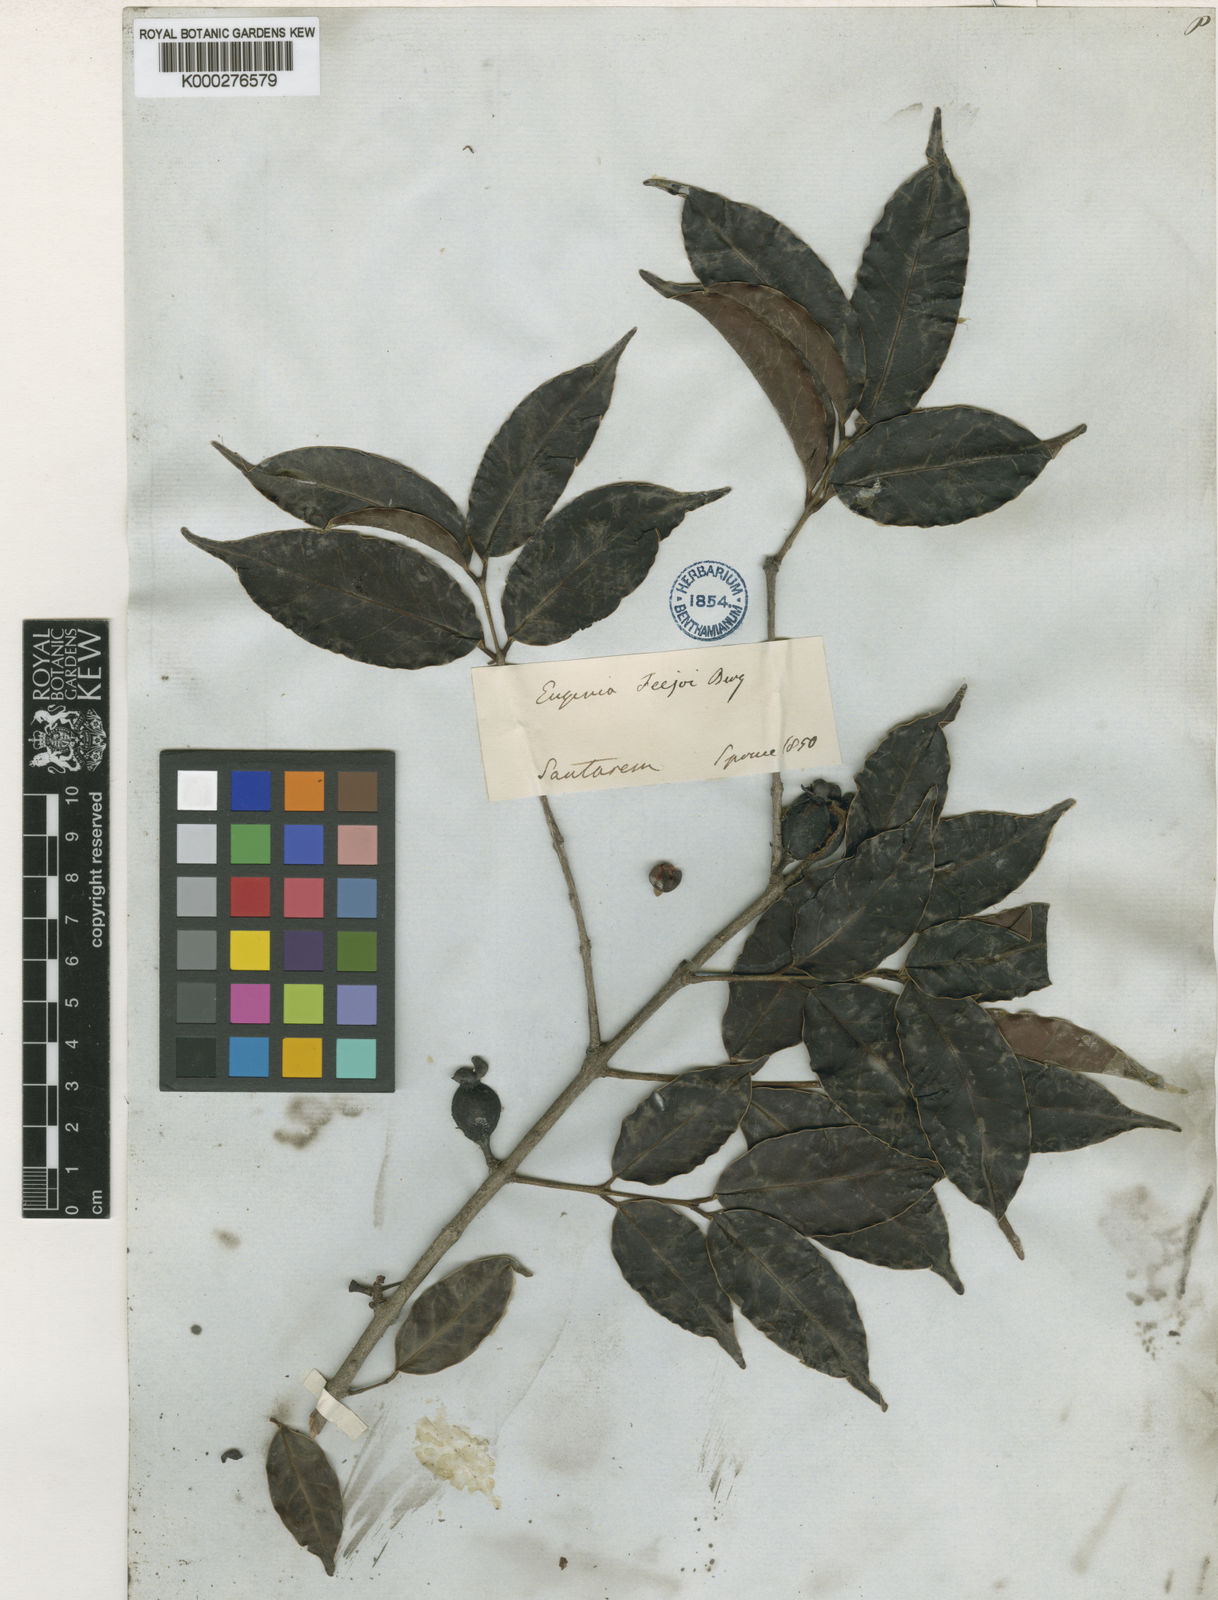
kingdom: Plantae
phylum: Tracheophyta
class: Magnoliopsida
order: Myrtales
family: Myrtaceae
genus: Eugenia
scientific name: Eugenia moschata
